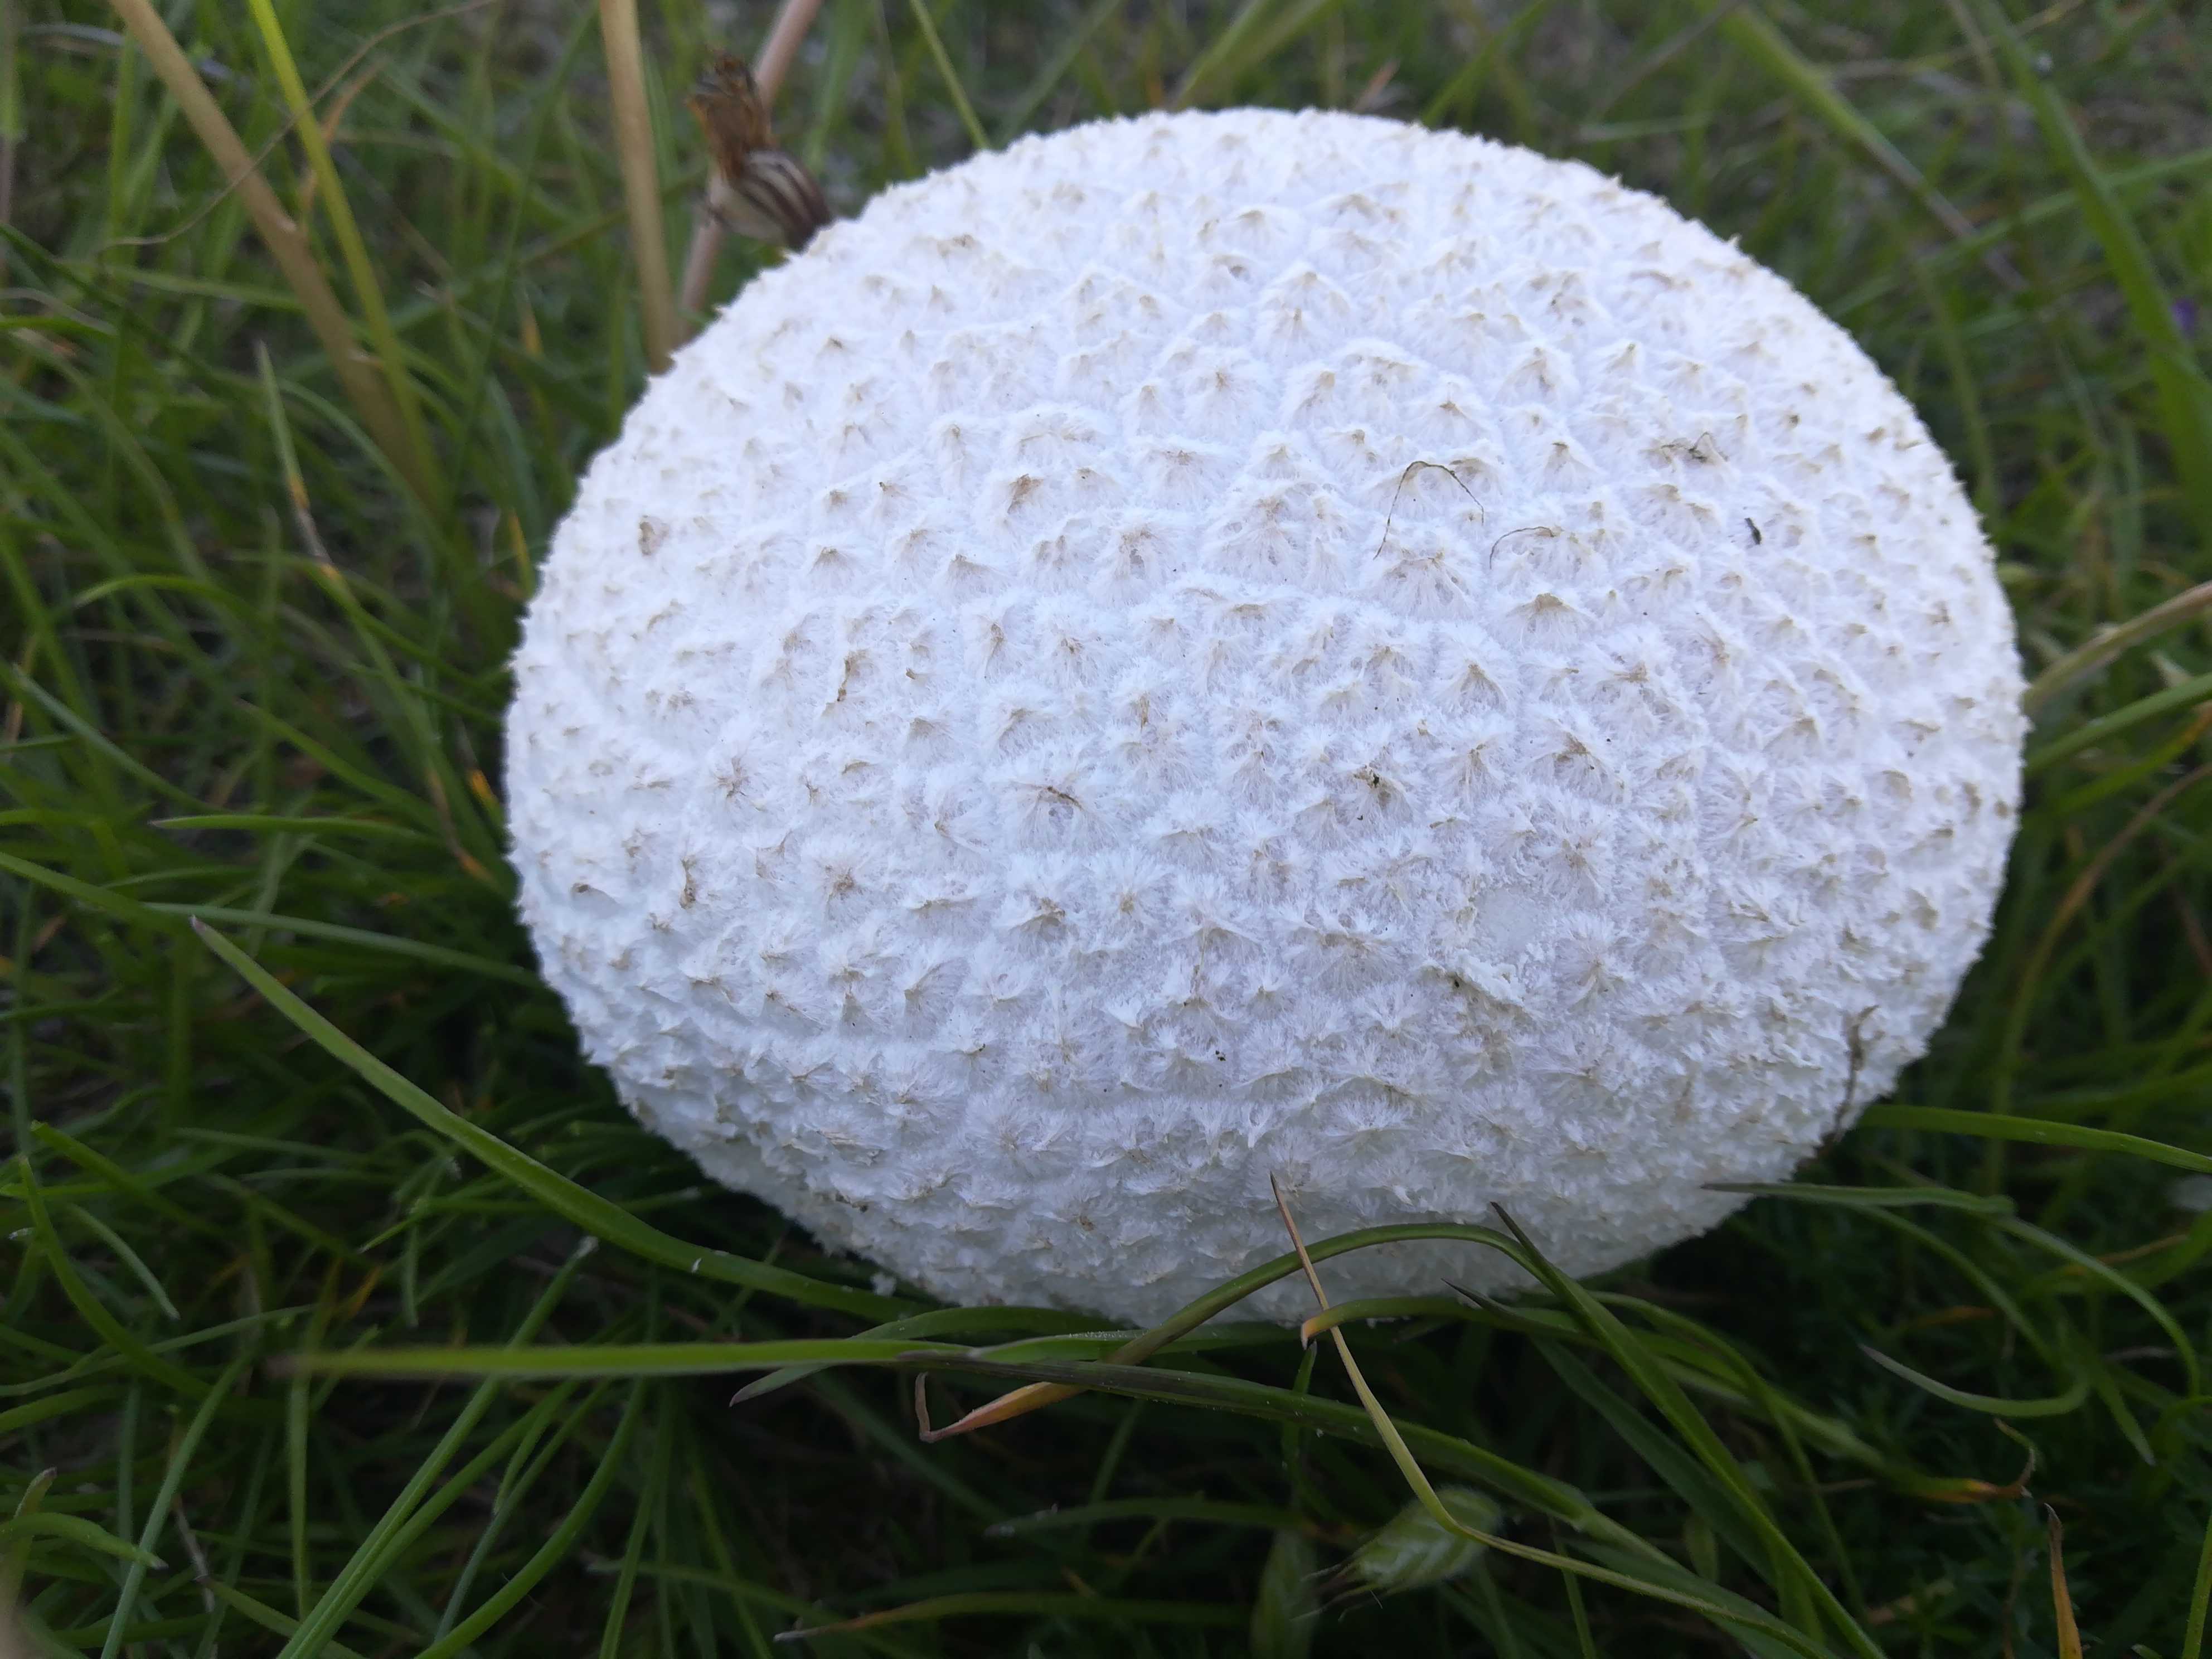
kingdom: Fungi
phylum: Basidiomycota
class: Agaricomycetes
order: Agaricales
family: Lycoperdaceae
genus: Bovistella
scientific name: Bovistella utriformis
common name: skællet støvbold
